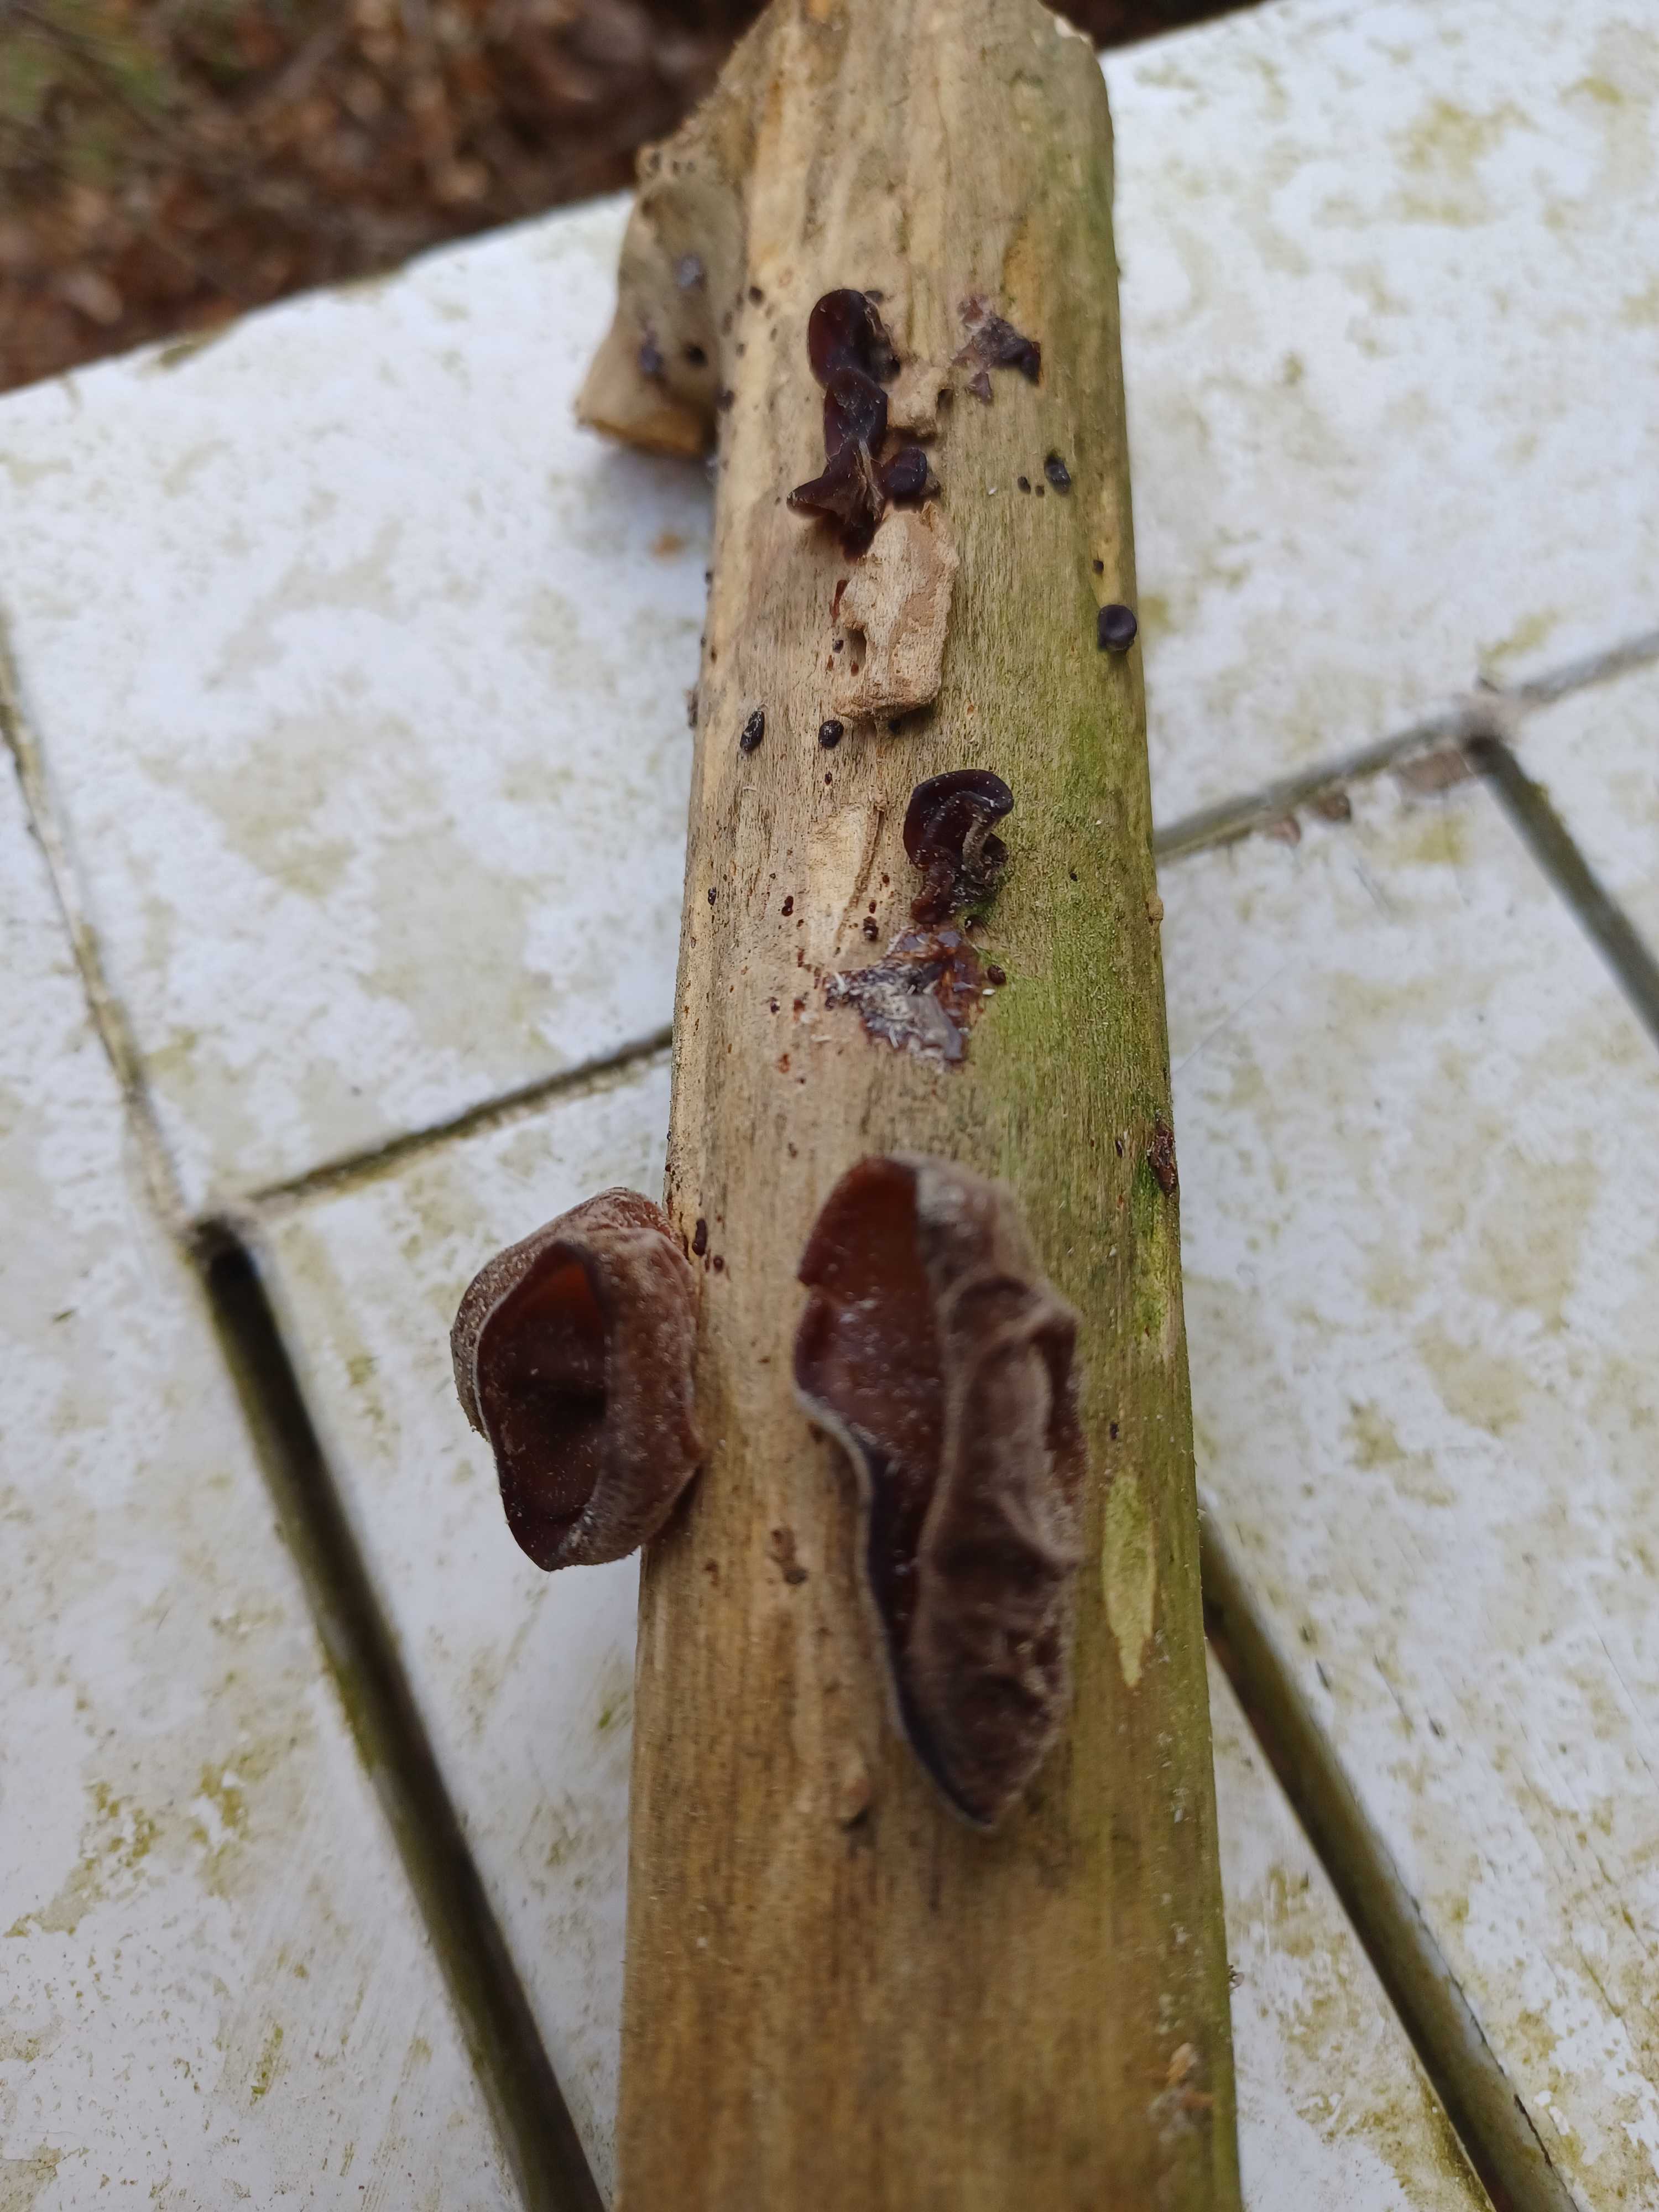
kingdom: Fungi
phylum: Basidiomycota
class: Agaricomycetes
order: Auriculariales
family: Auriculariaceae
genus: Auricularia
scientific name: Auricularia auricula-judae
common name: almindelig judasøre
